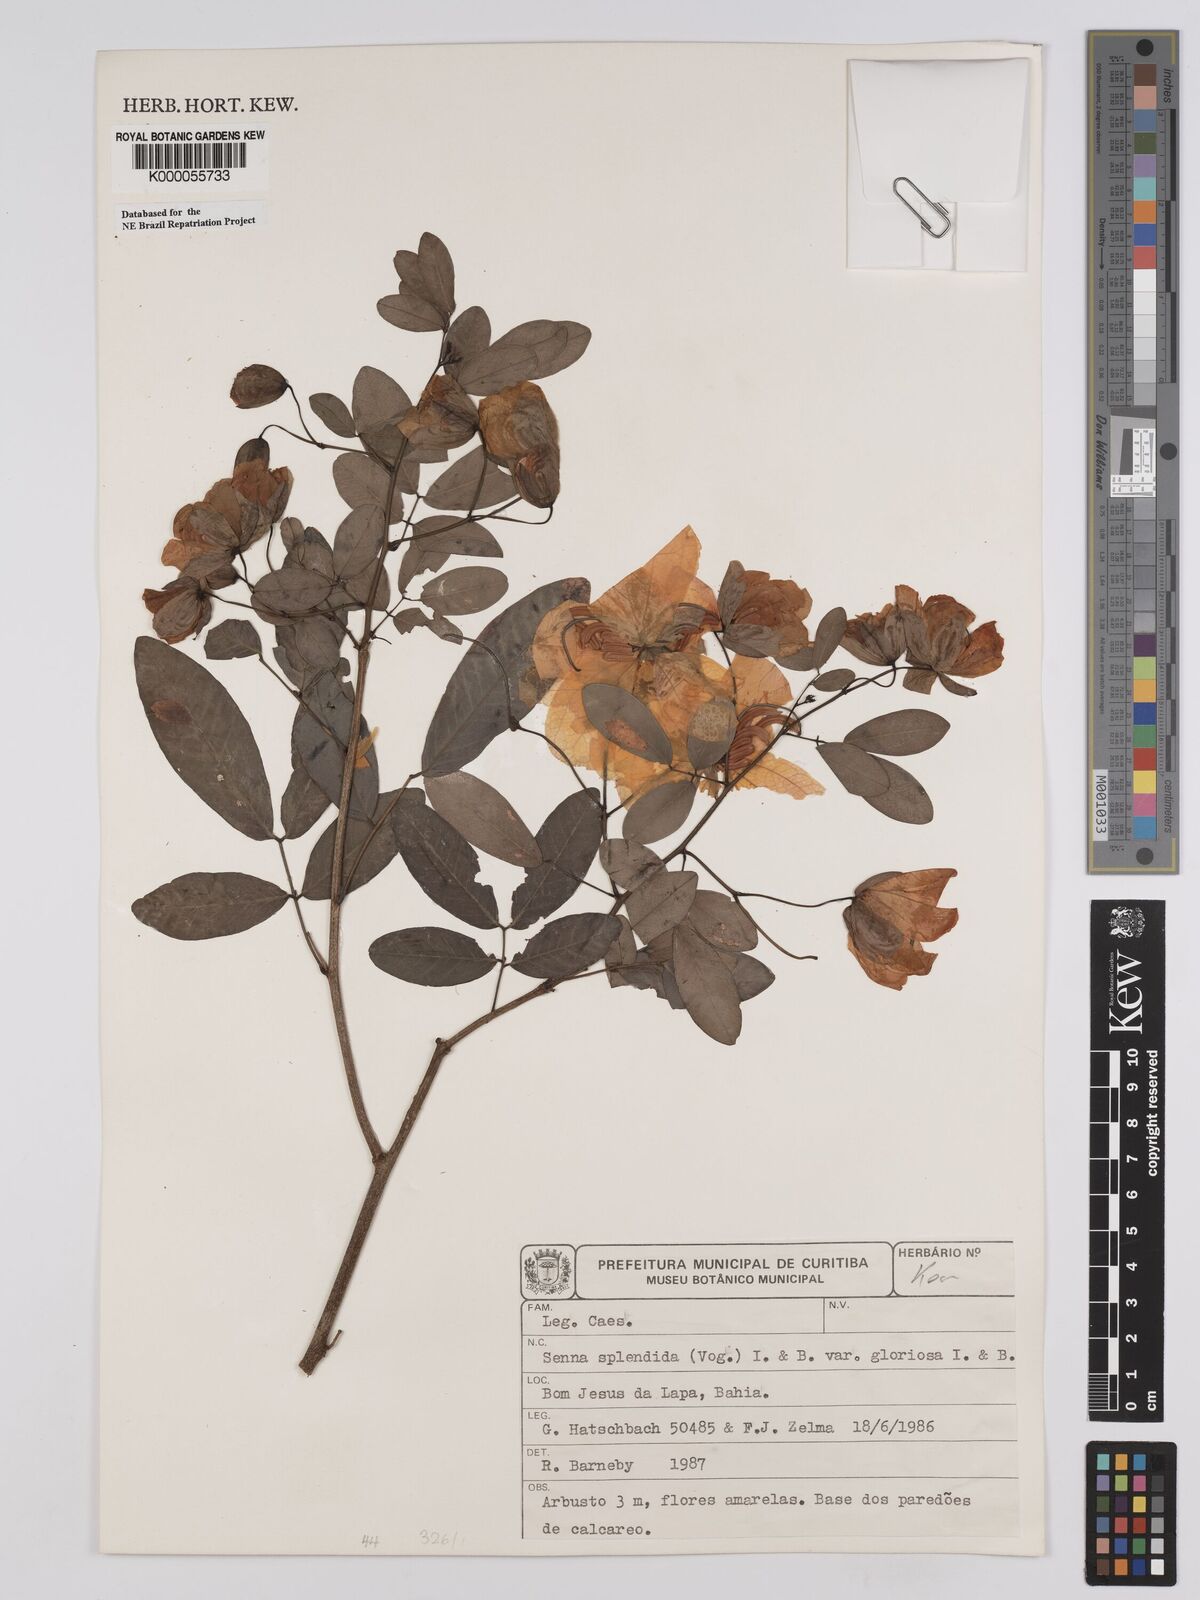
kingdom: Plantae
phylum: Tracheophyta
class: Magnoliopsida
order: Fabales
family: Fabaceae
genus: Senna
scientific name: Senna splendida
